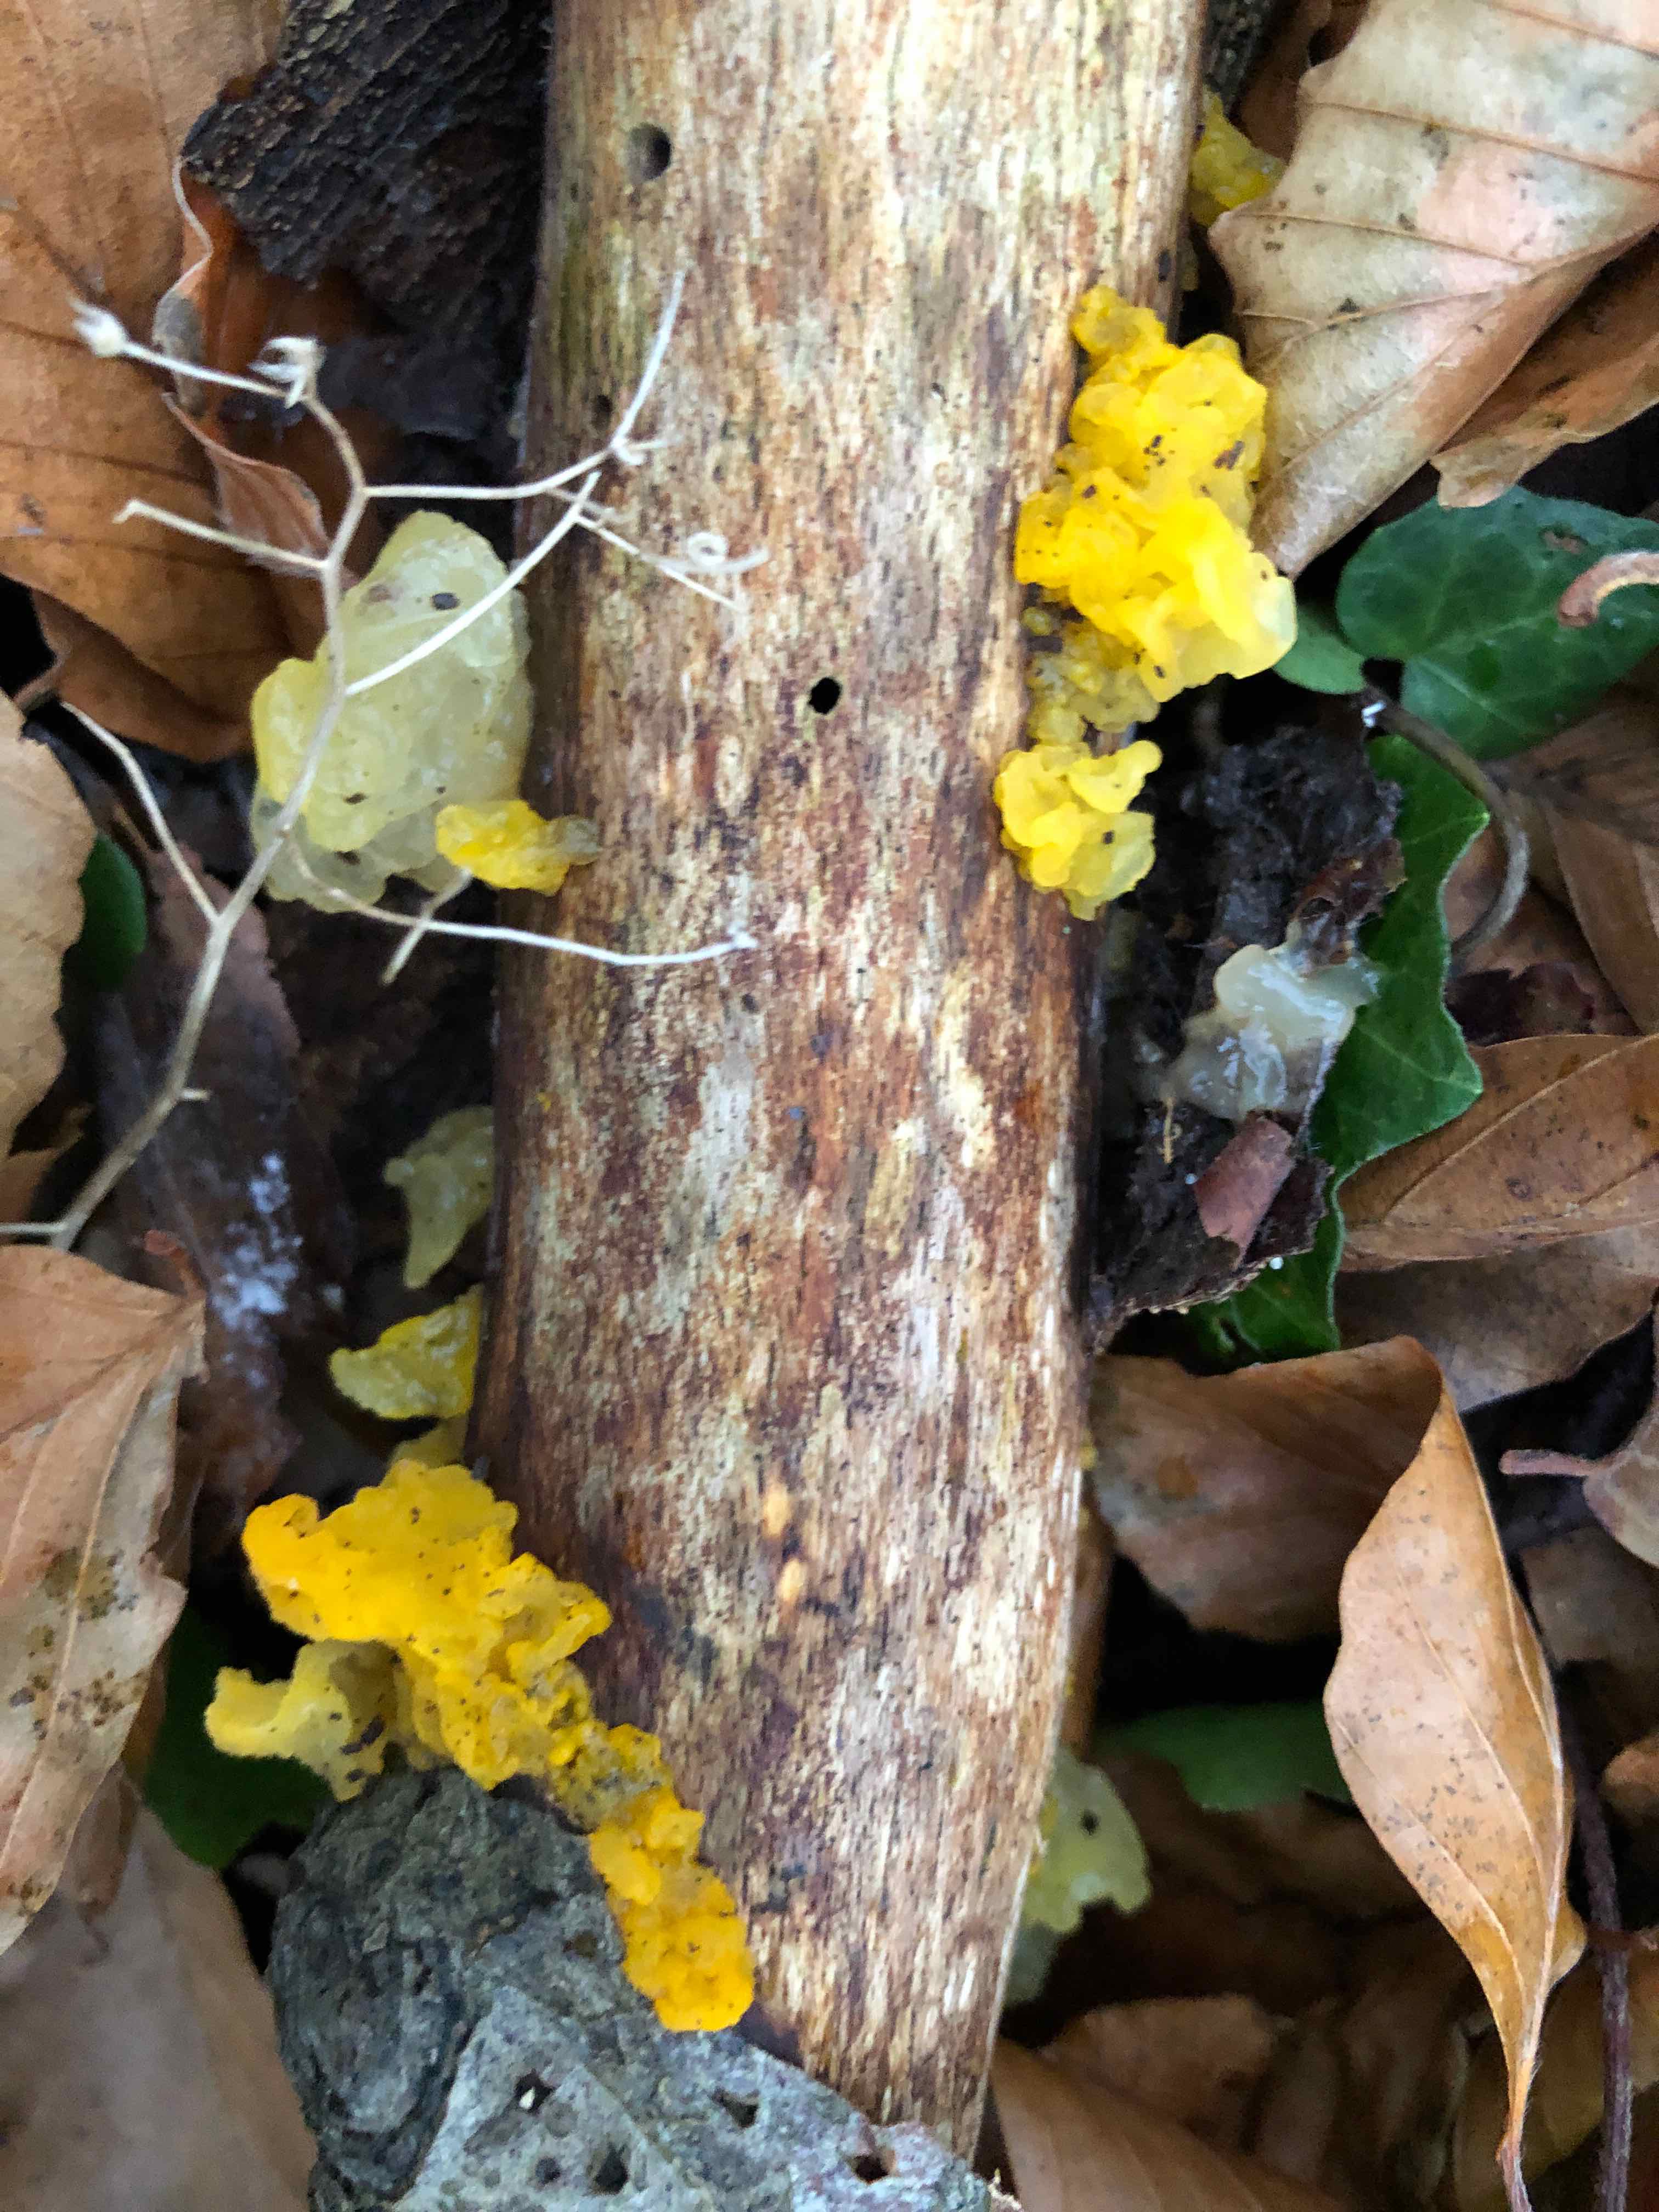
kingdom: Fungi
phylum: Basidiomycota
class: Tremellomycetes
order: Tremellales
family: Tremellaceae
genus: Tremella
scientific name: Tremella mesenterica
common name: gul bævresvamp
